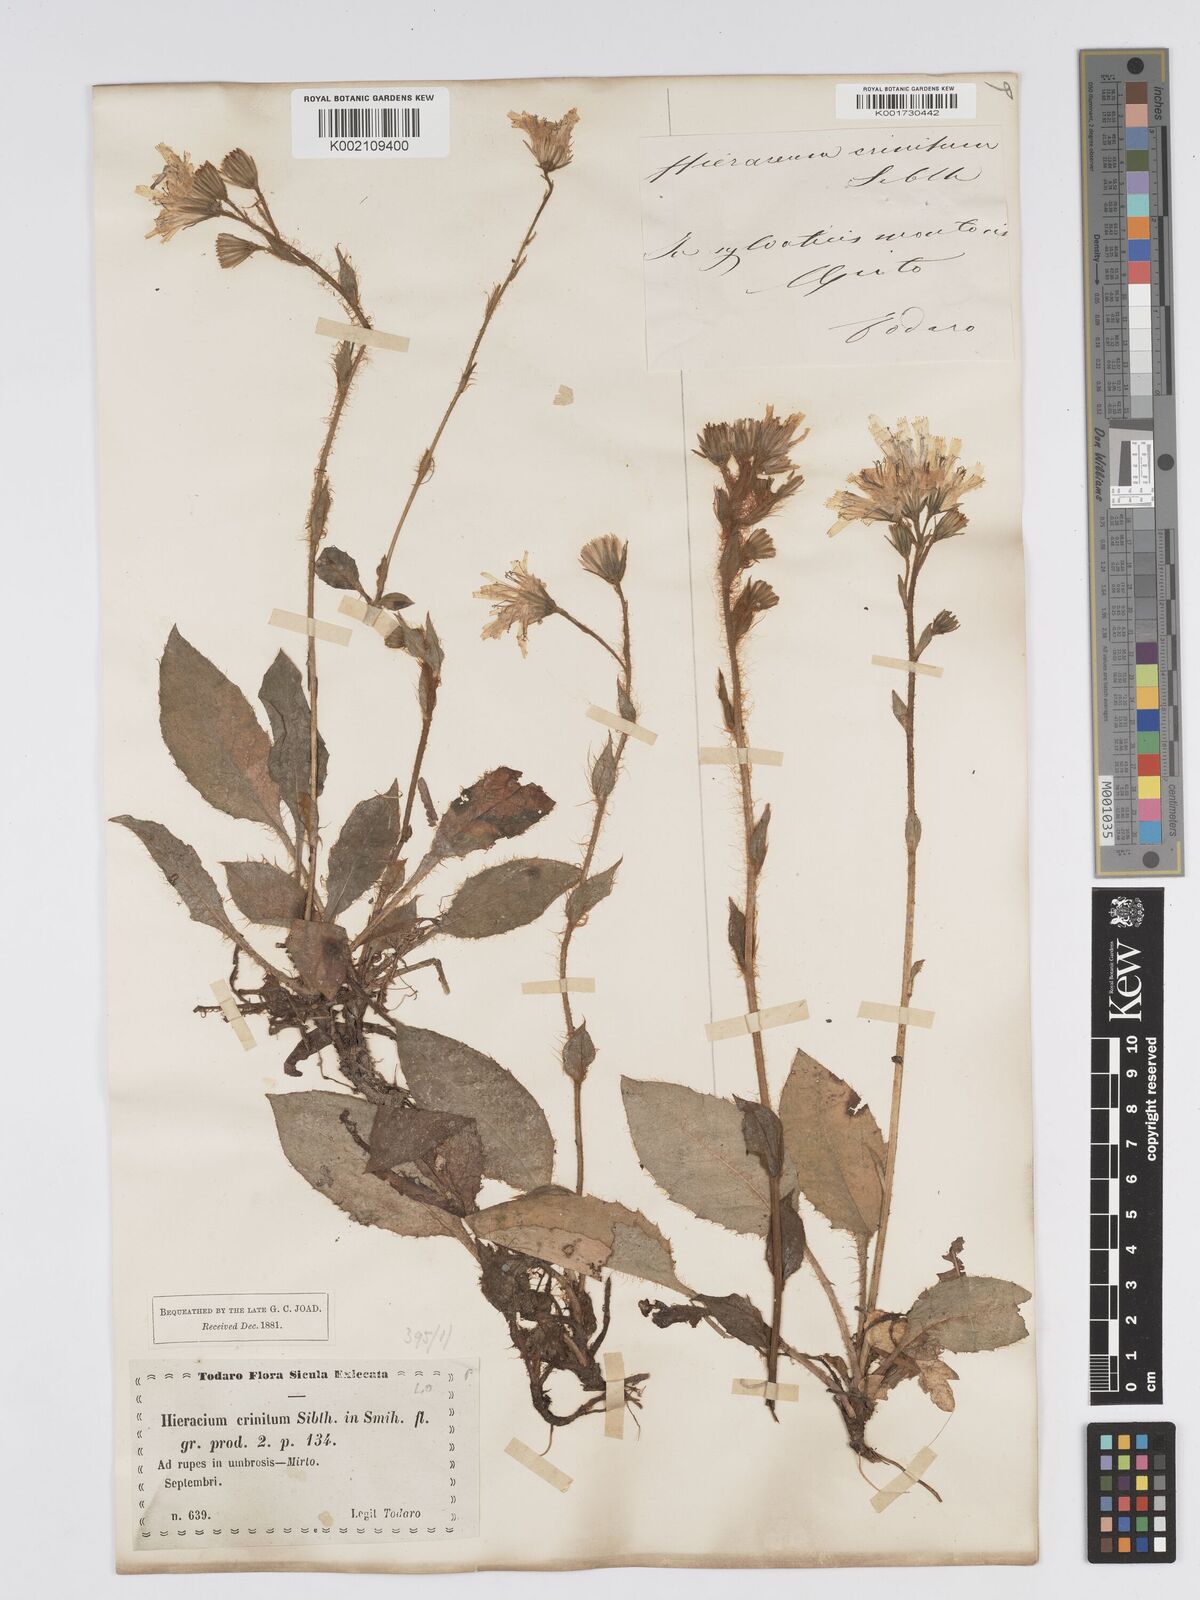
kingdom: Plantae
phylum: Tracheophyta
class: Magnoliopsida
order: Asterales
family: Asteraceae
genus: Hieracium
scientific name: Hieracium racemosum
